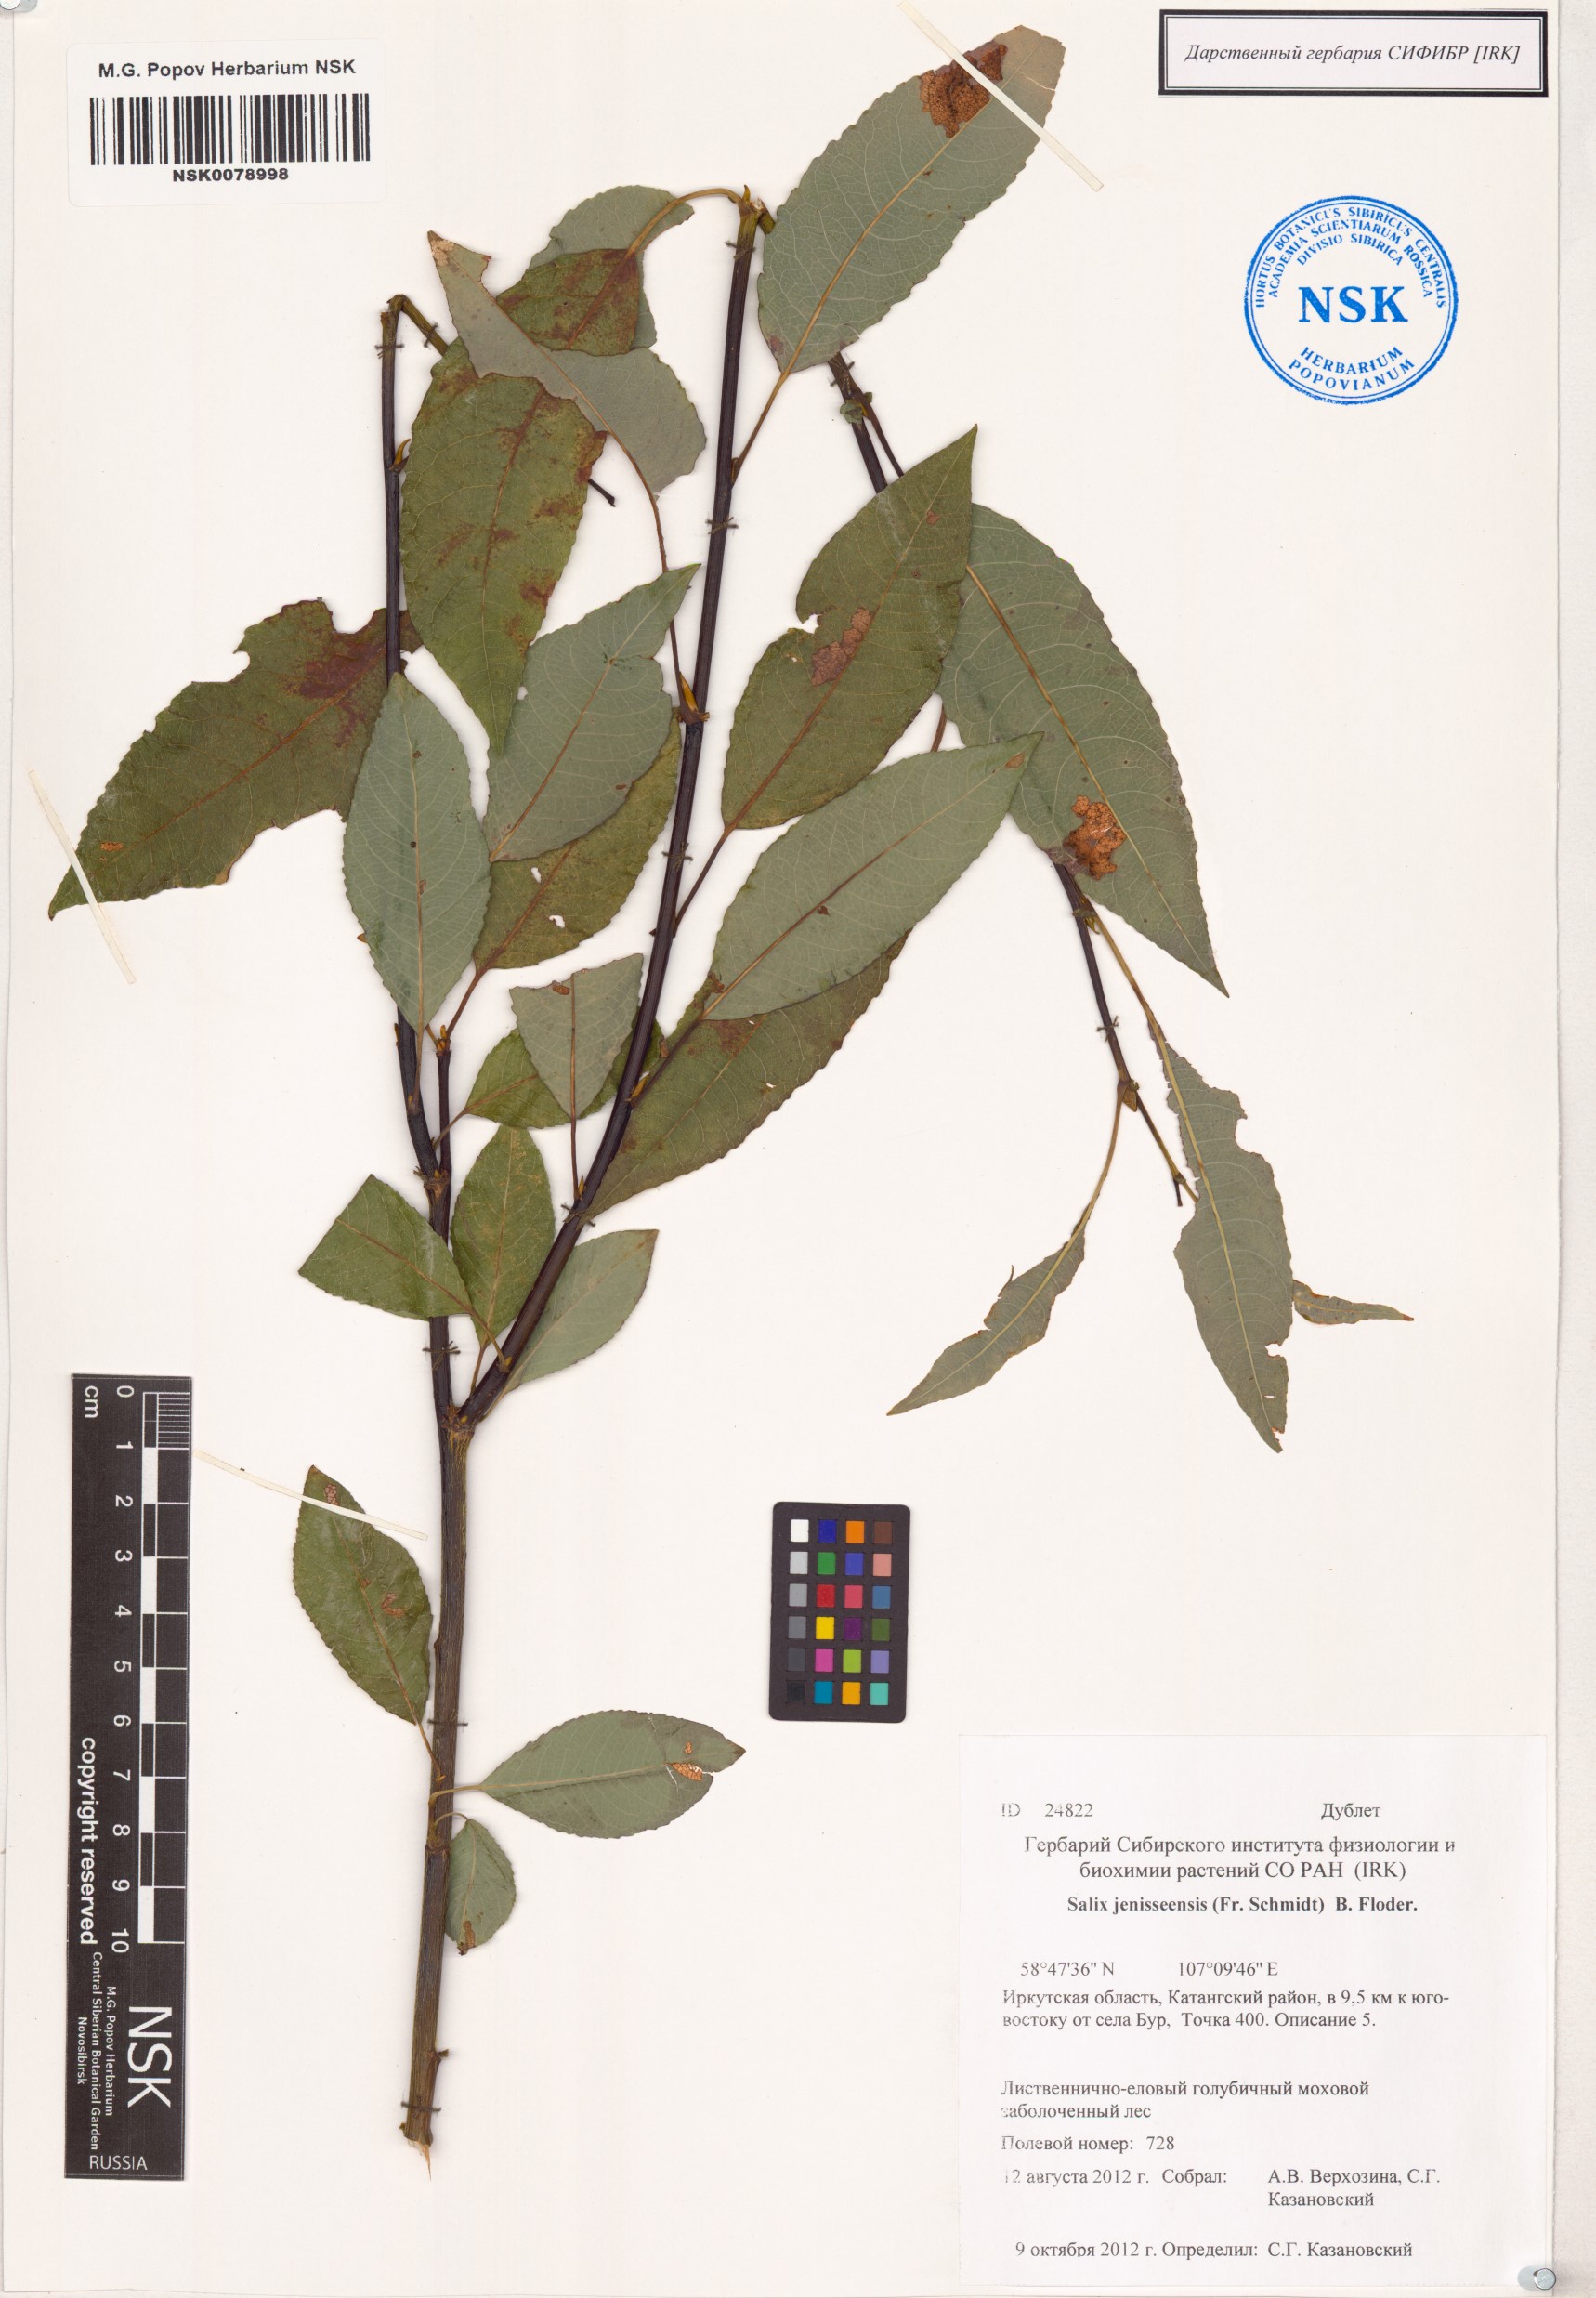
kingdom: Plantae
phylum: Tracheophyta
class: Magnoliopsida
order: Malpighiales
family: Salicaceae
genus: Salix
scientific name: Salix jenisseensis
